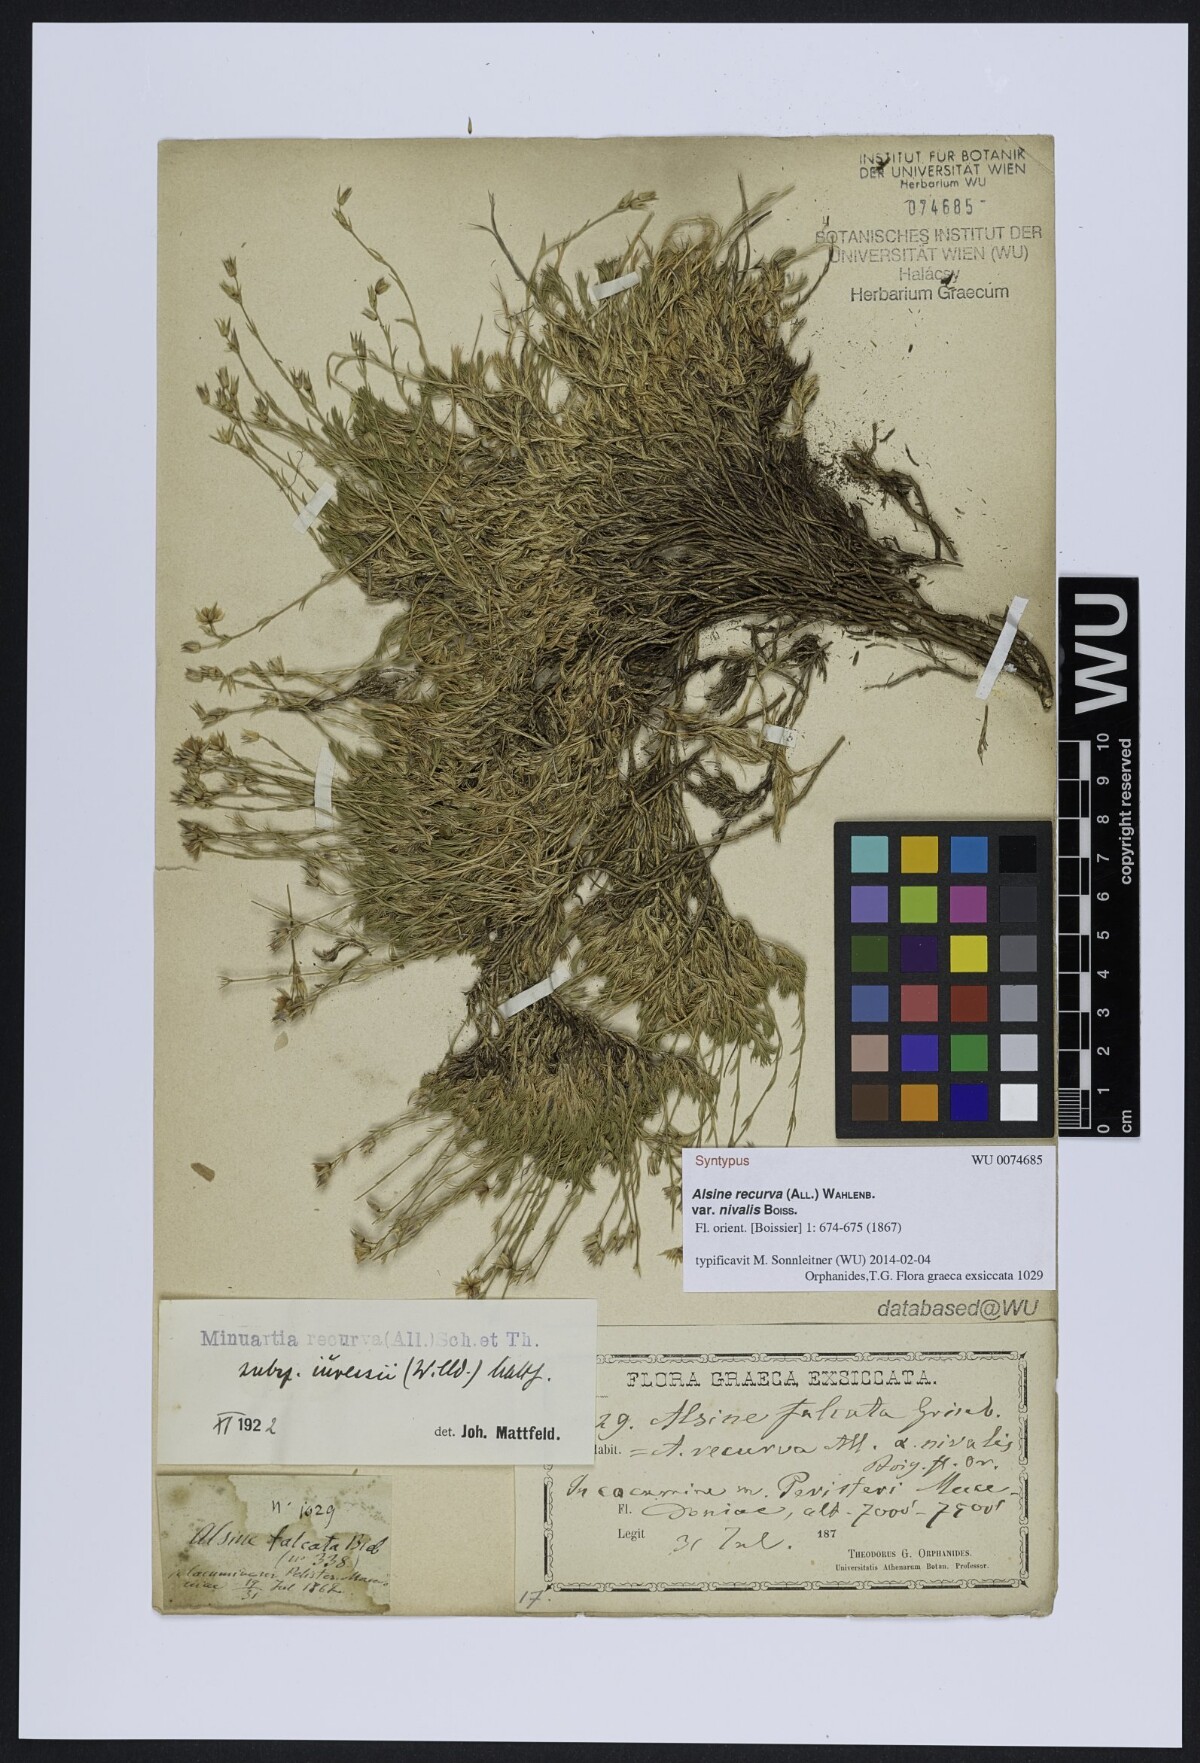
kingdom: Plantae
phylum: Tracheophyta
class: Magnoliopsida
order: Caryophyllales
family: Caryophyllaceae
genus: Minuartia
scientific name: Minuartia hirsuta
